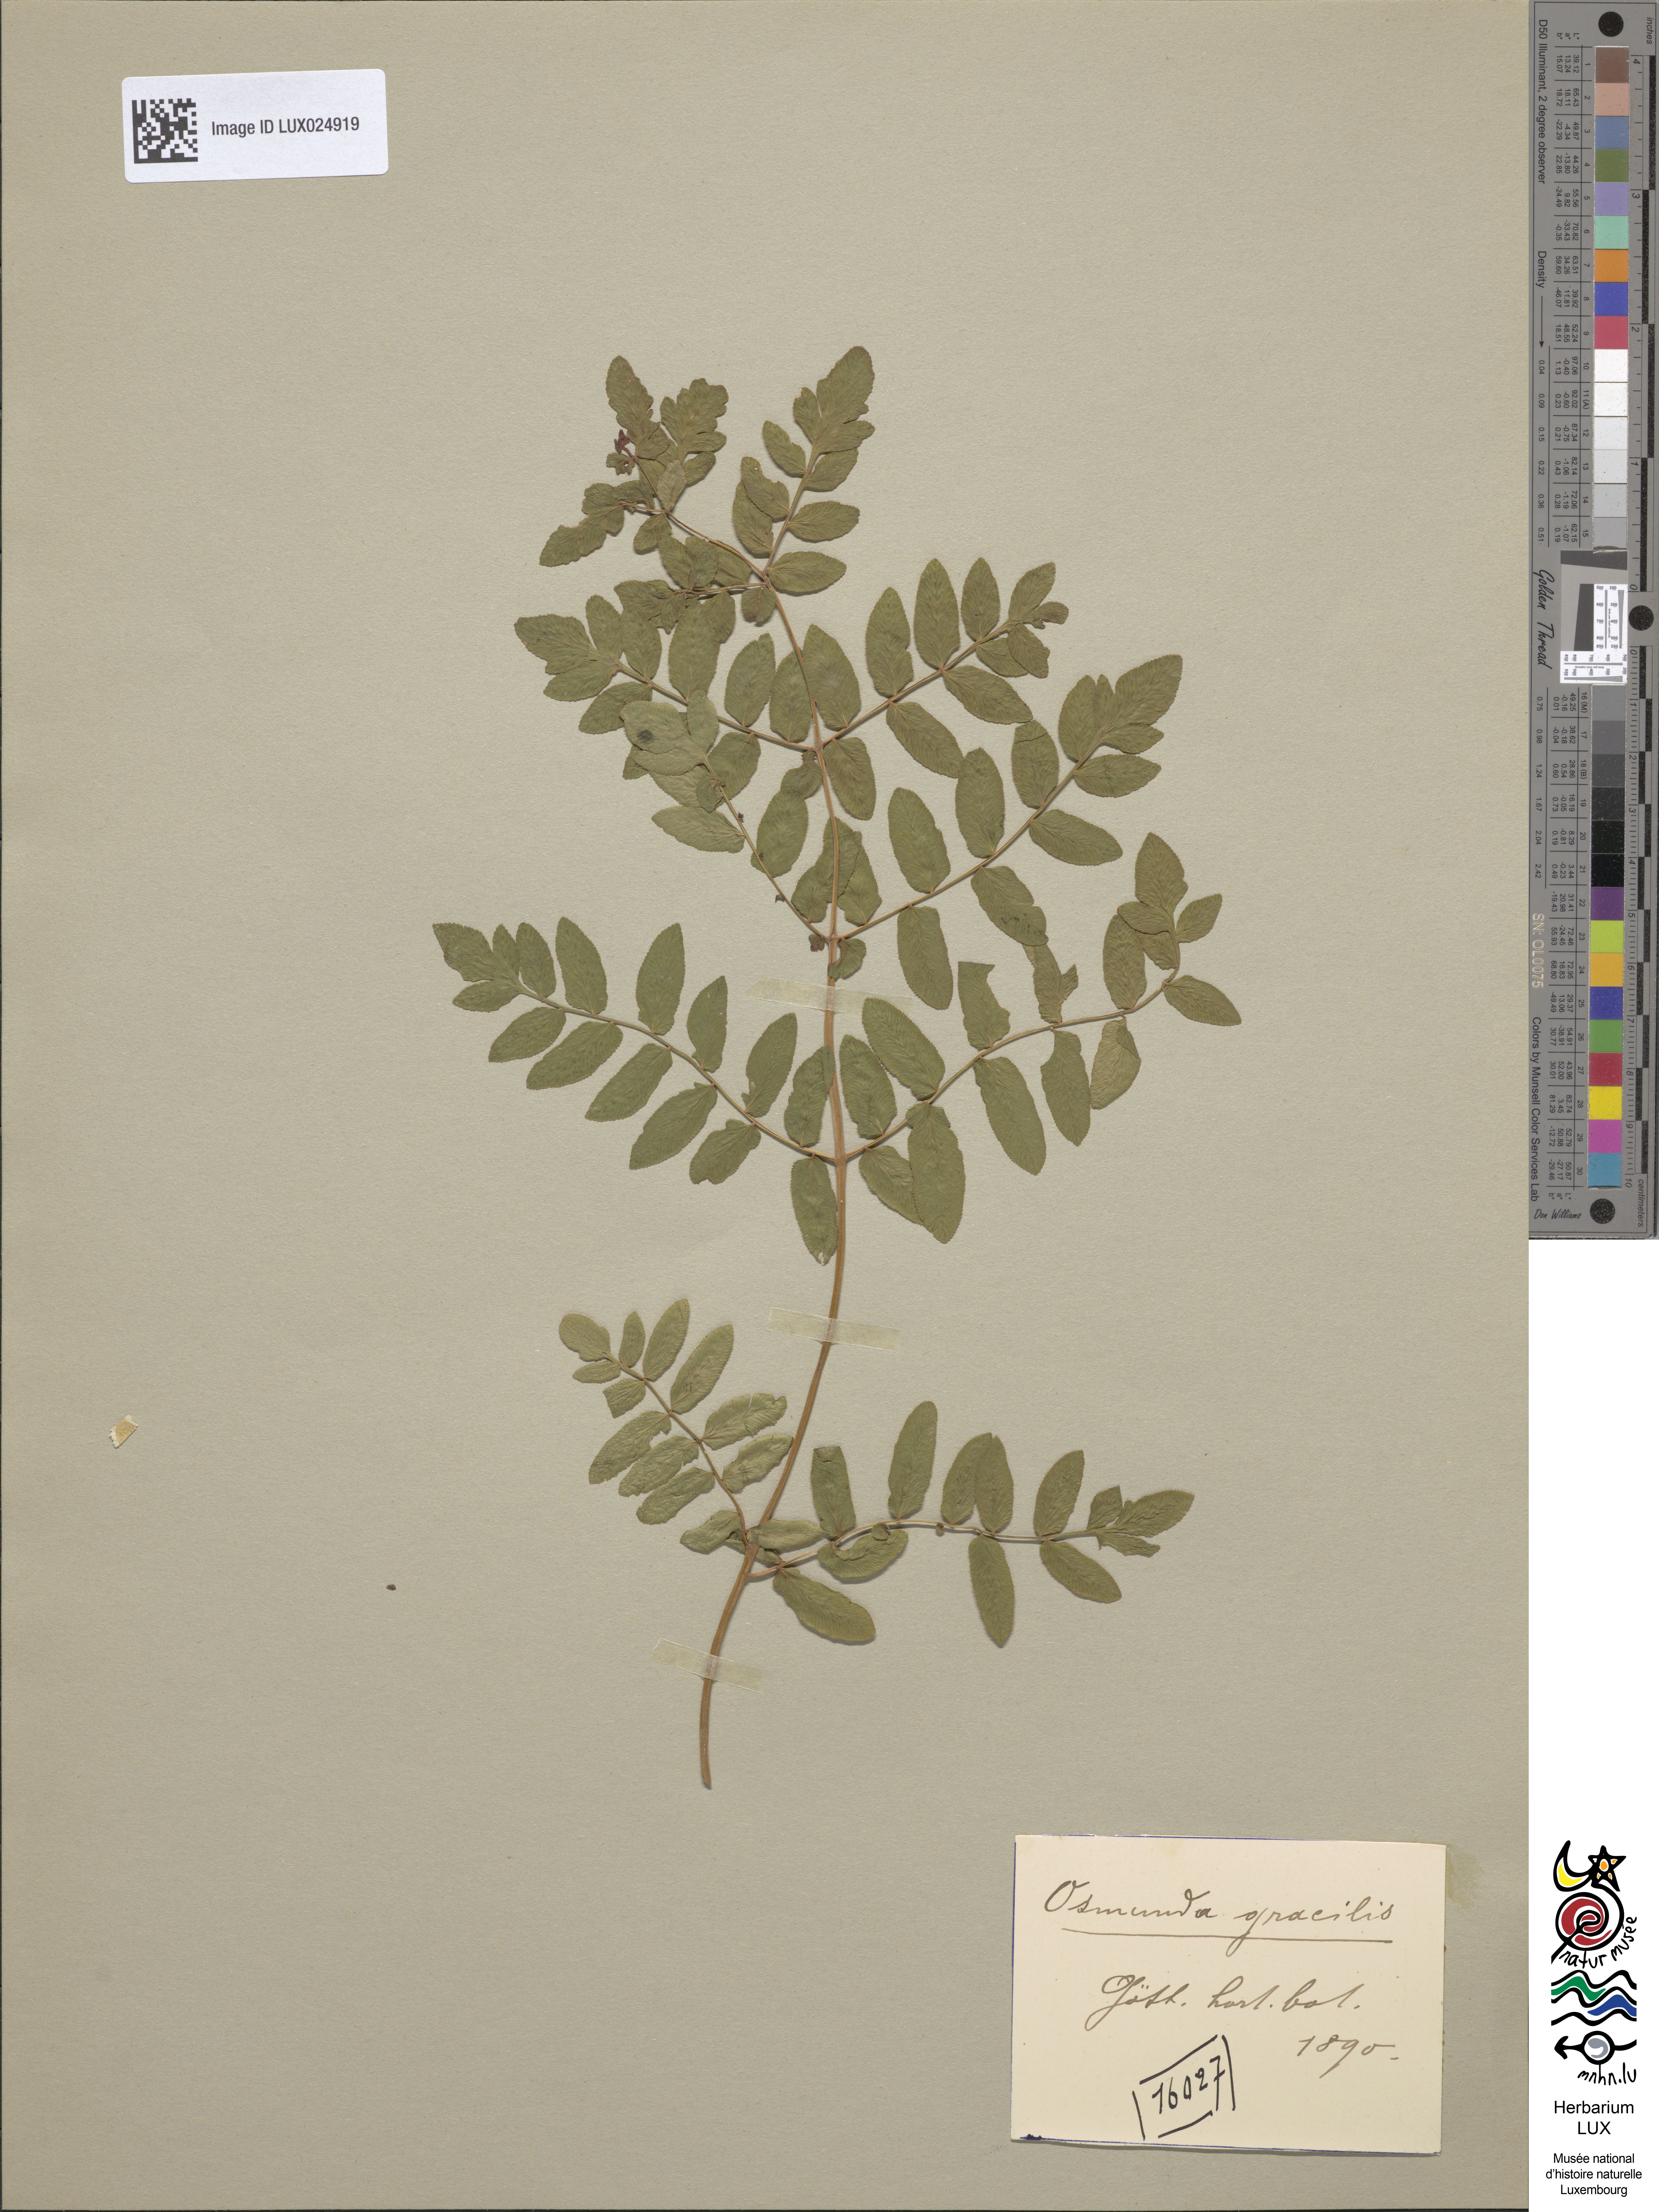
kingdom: Plantae
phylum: Tracheophyta
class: Polypodiopsida
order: Osmundales
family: Osmundaceae
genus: Osmunda
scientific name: Osmunda spectabilis
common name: American royal fern
